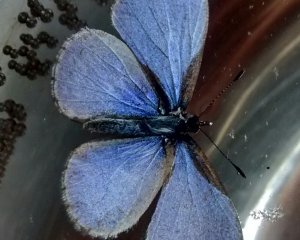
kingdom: Animalia
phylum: Arthropoda
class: Insecta
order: Lepidoptera
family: Lycaenidae
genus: Celastrina
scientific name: Celastrina
